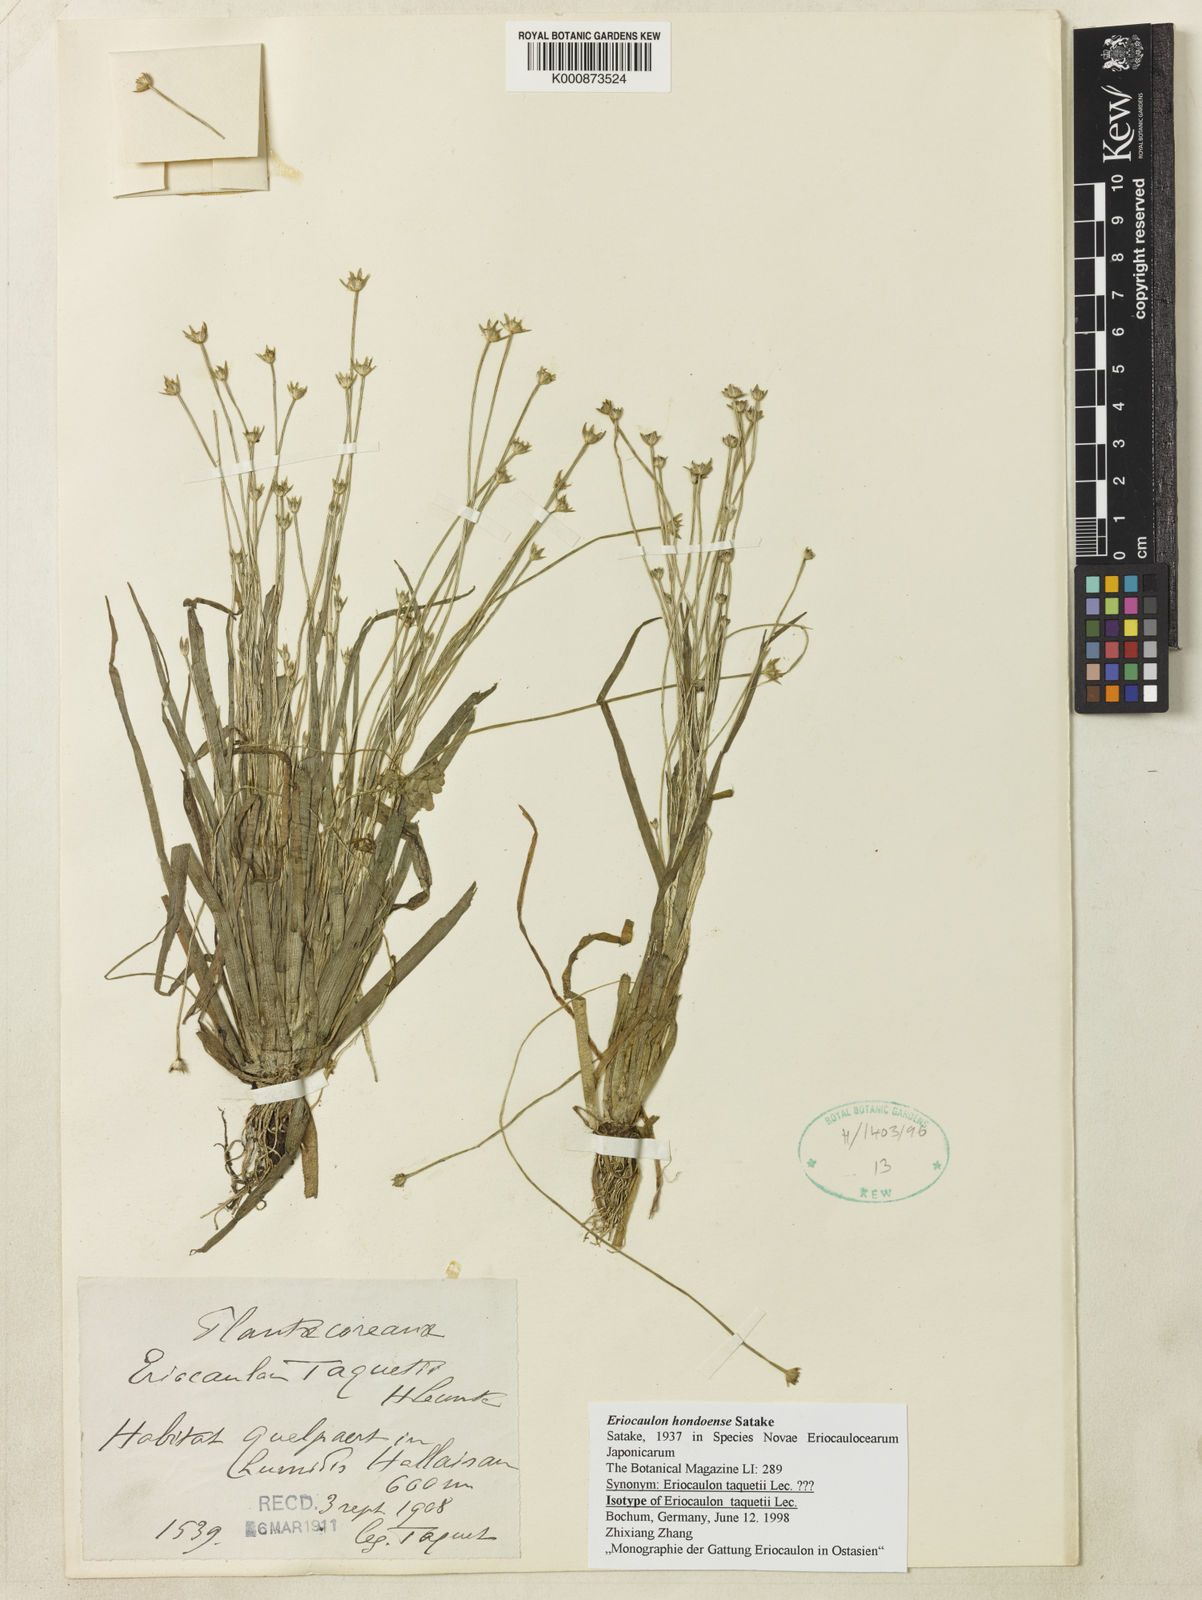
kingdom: Plantae
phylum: Tracheophyta
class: Liliopsida
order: Poales
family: Eriocaulaceae
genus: Eriocaulon
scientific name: Eriocaulon taquetii
